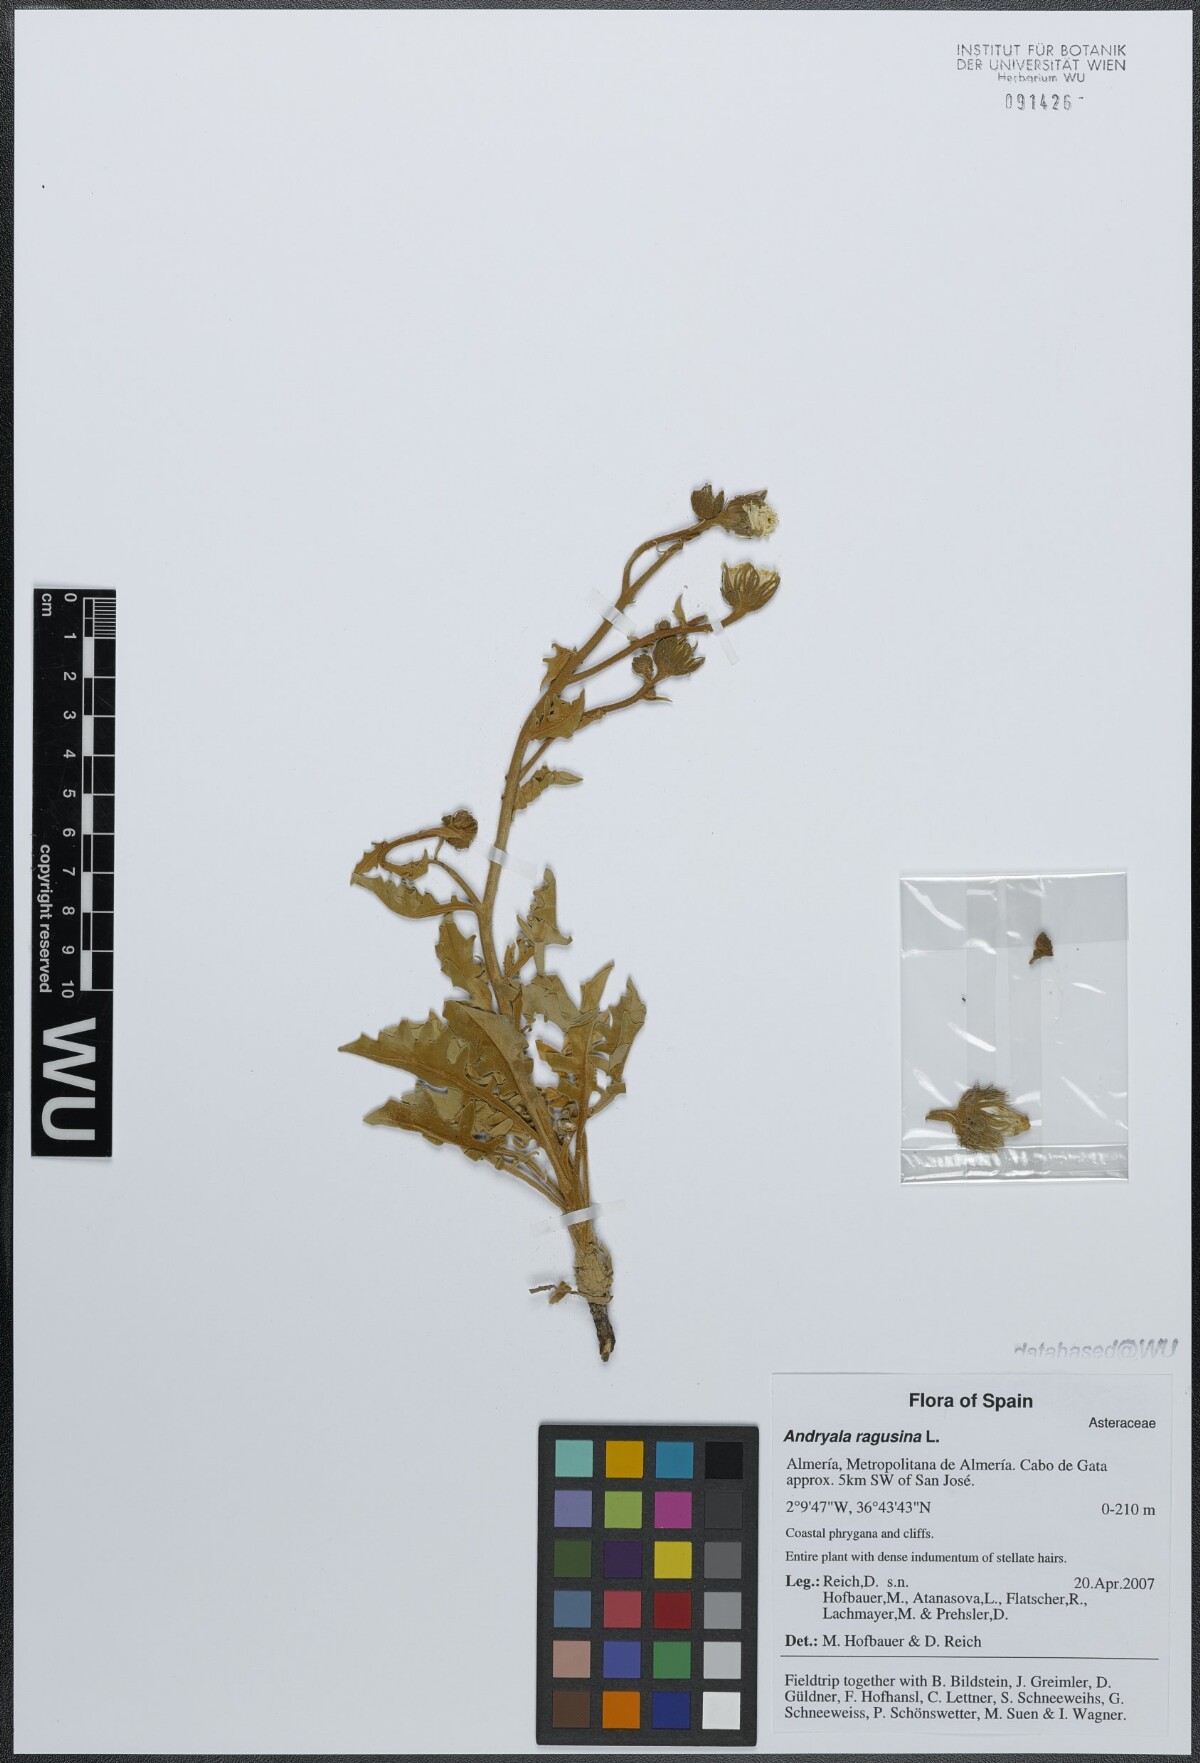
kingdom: Plantae
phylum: Tracheophyta
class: Magnoliopsida
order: Asterales
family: Asteraceae
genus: Andryala
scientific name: Andryala ragusina
